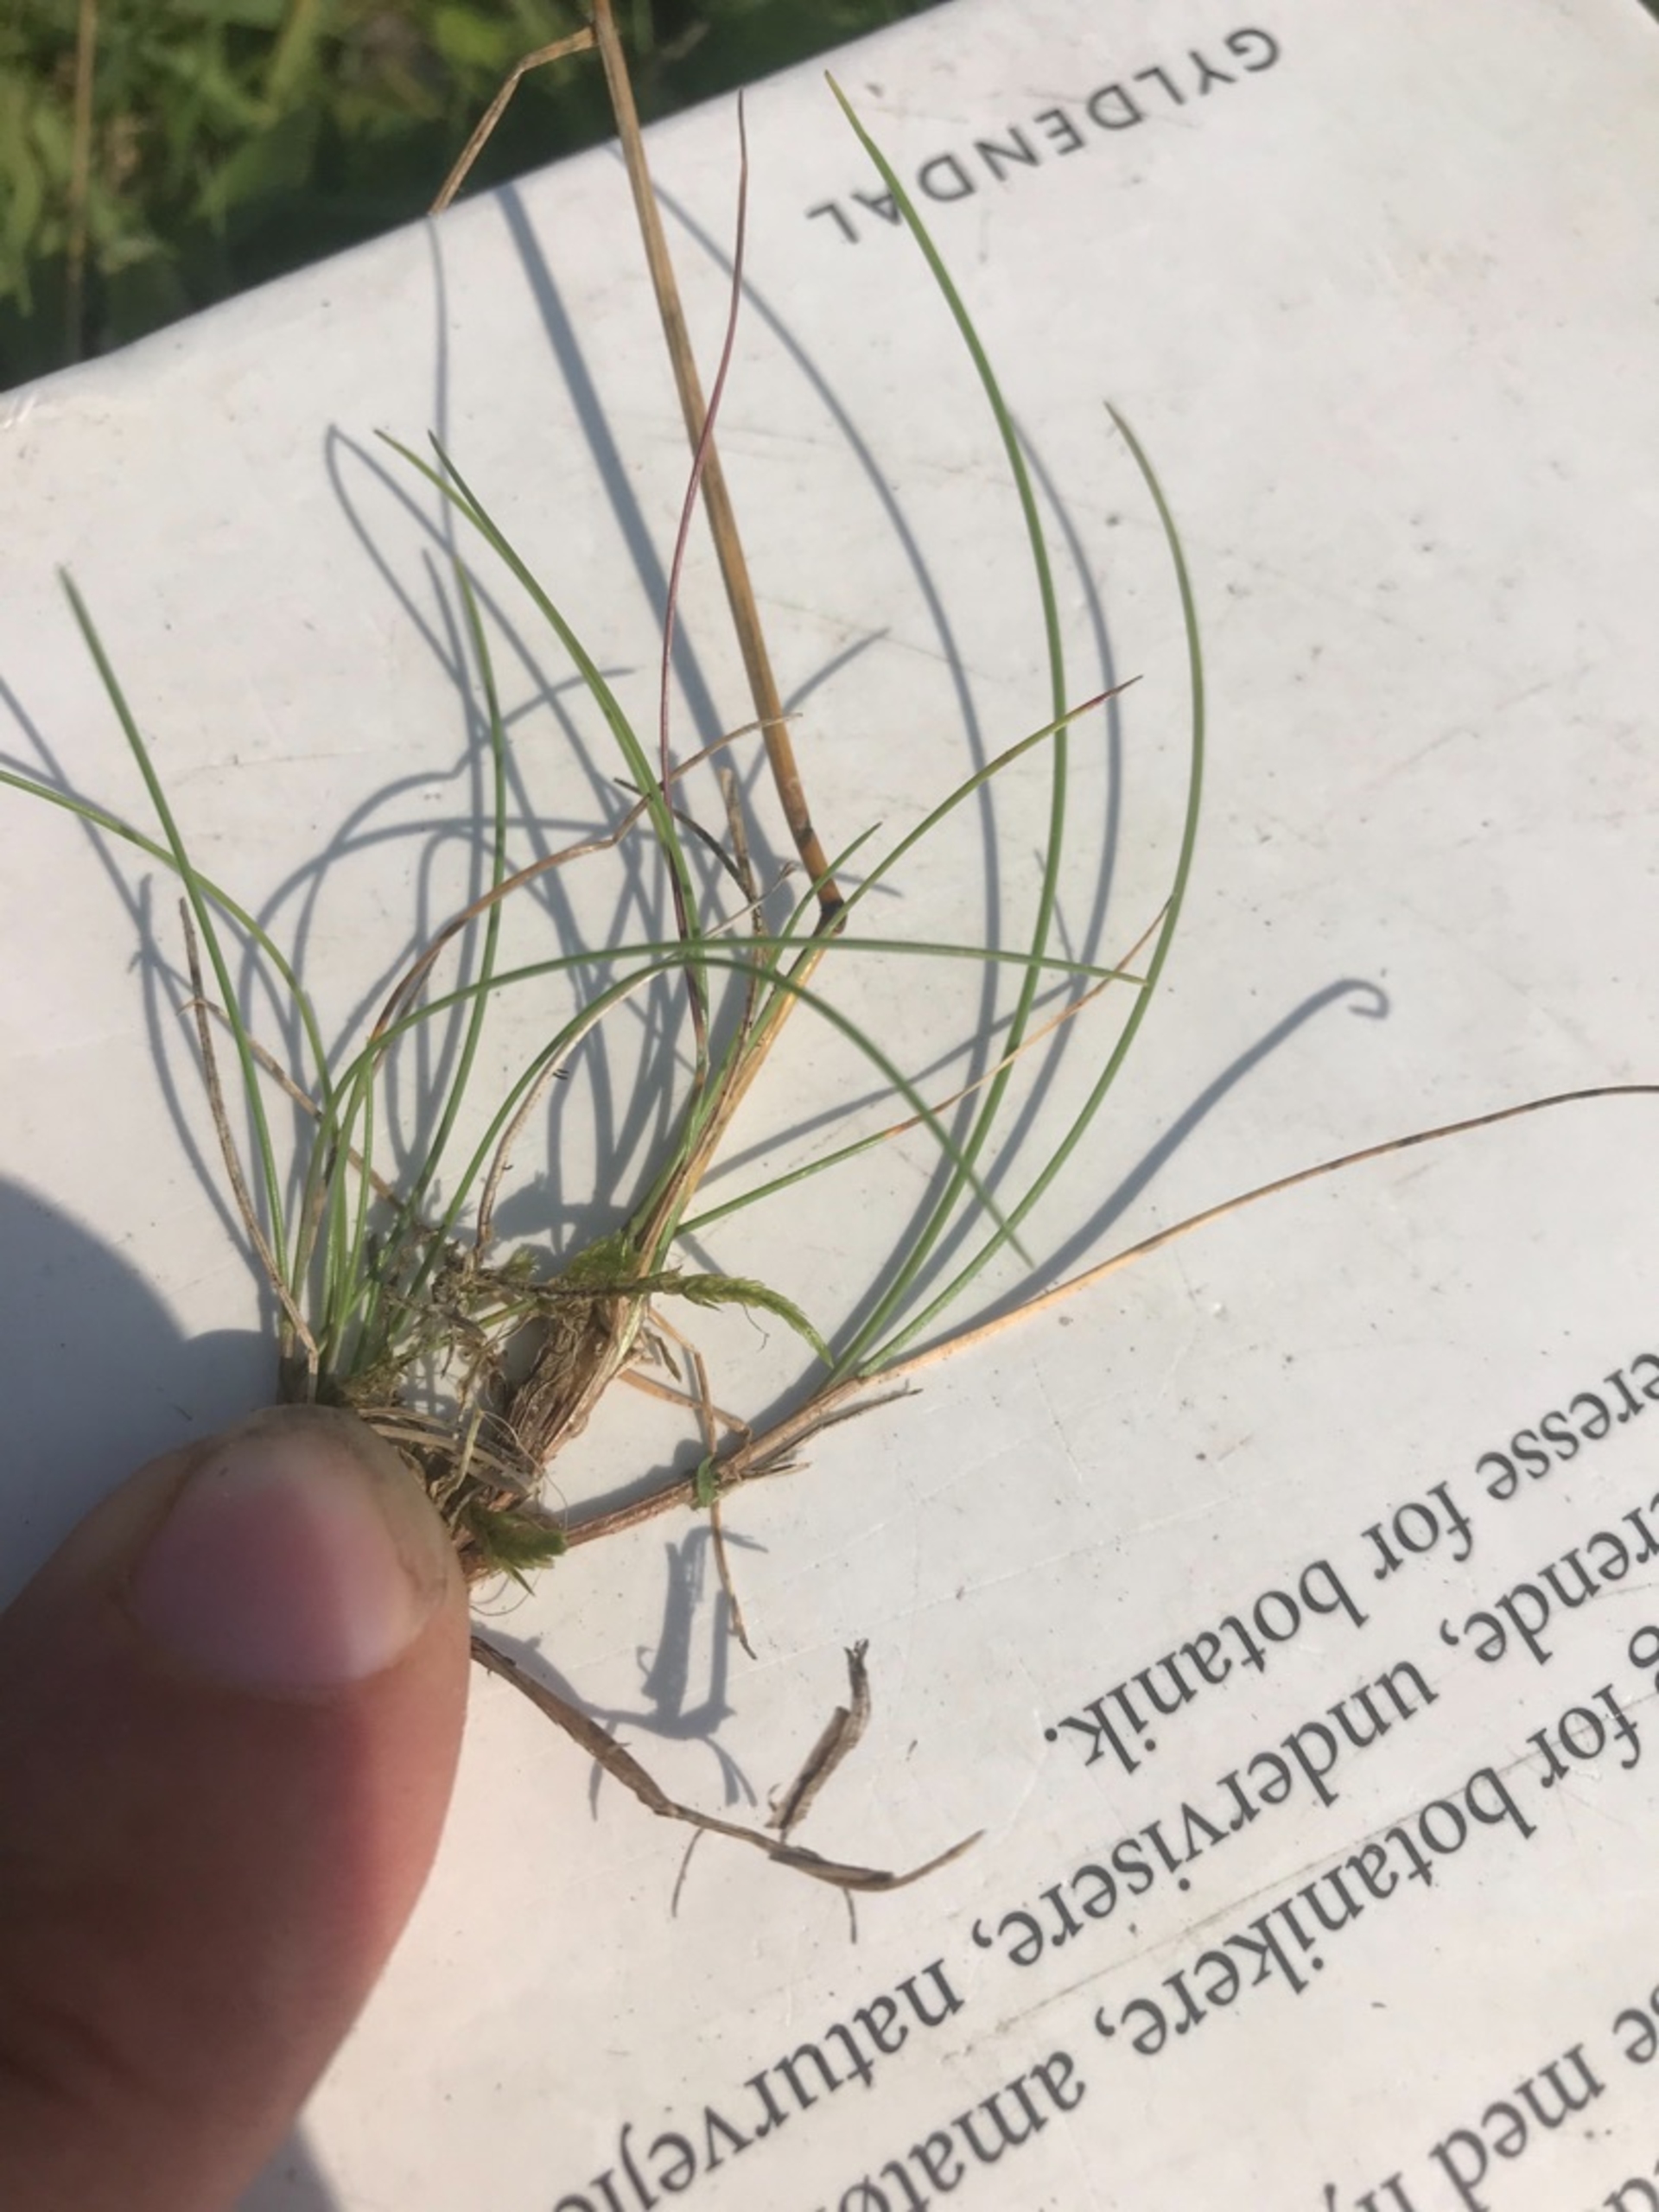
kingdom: Plantae
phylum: Tracheophyta
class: Liliopsida
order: Poales
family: Poaceae
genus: Festuca
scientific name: Festuca rubra
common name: Rød svingel
